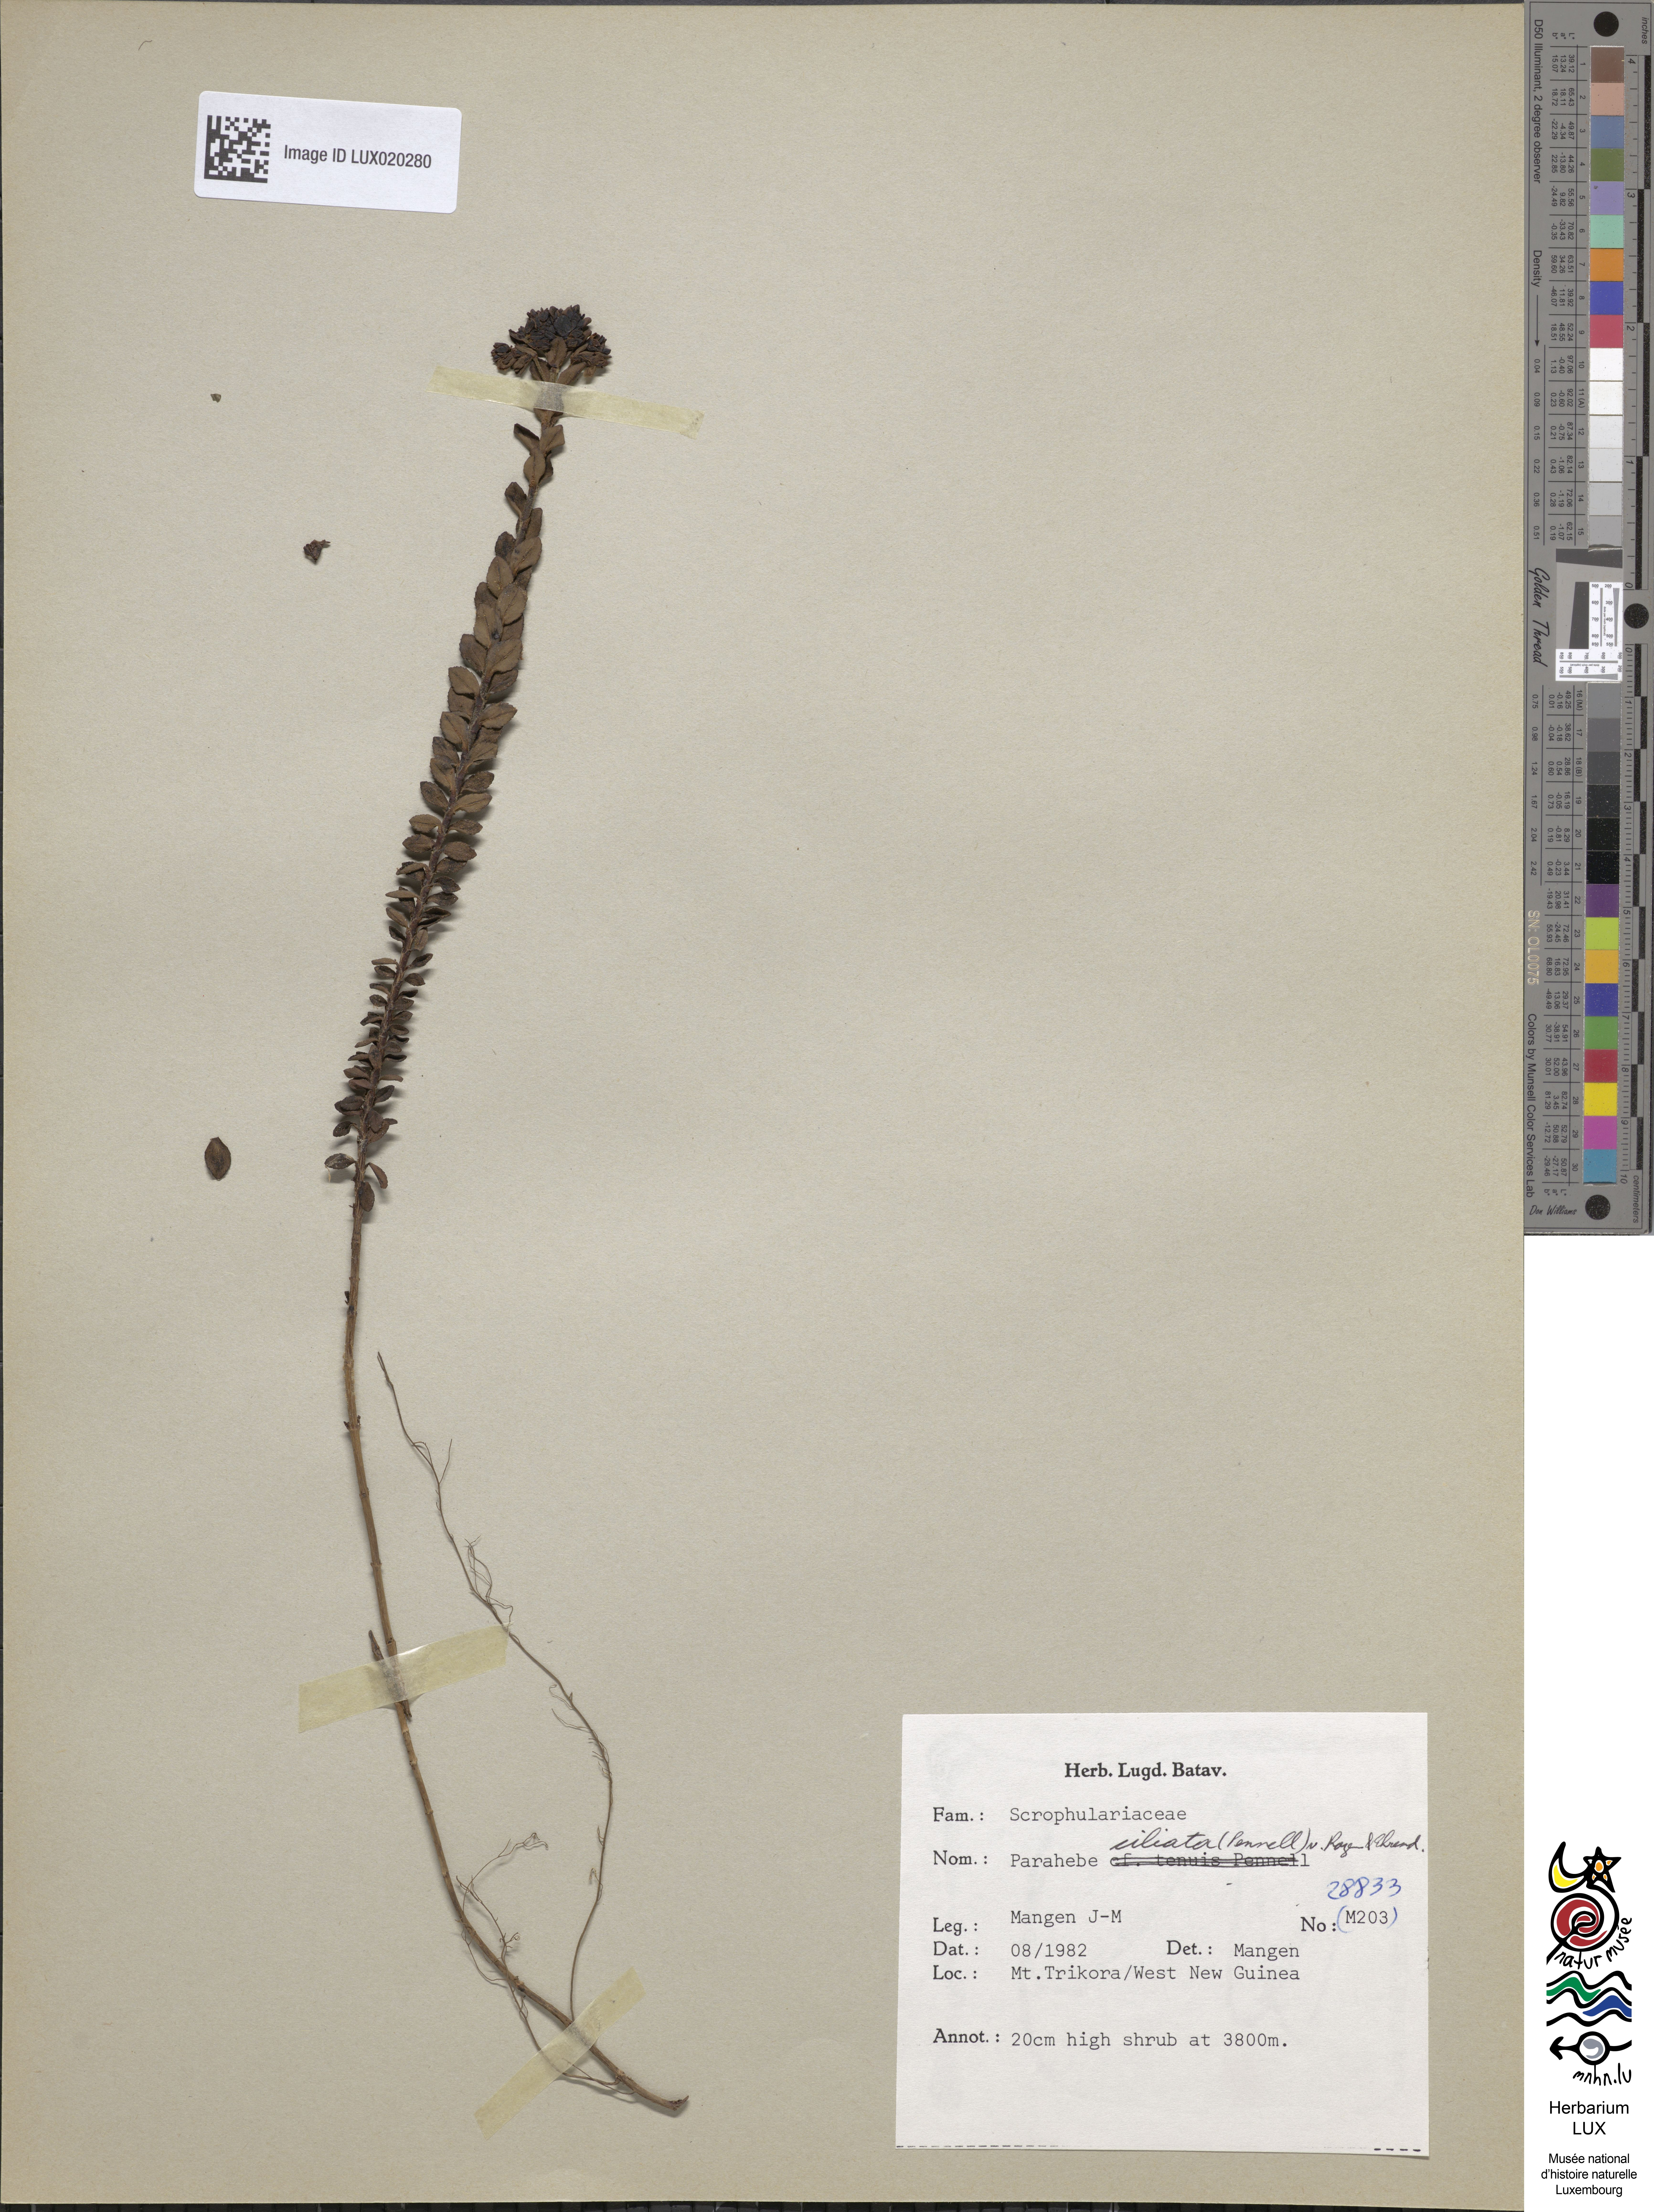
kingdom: Plantae
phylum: Tracheophyta
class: Magnoliopsida
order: Lamiales
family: Plantaginaceae
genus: Veronica
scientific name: Veronica ionantha
